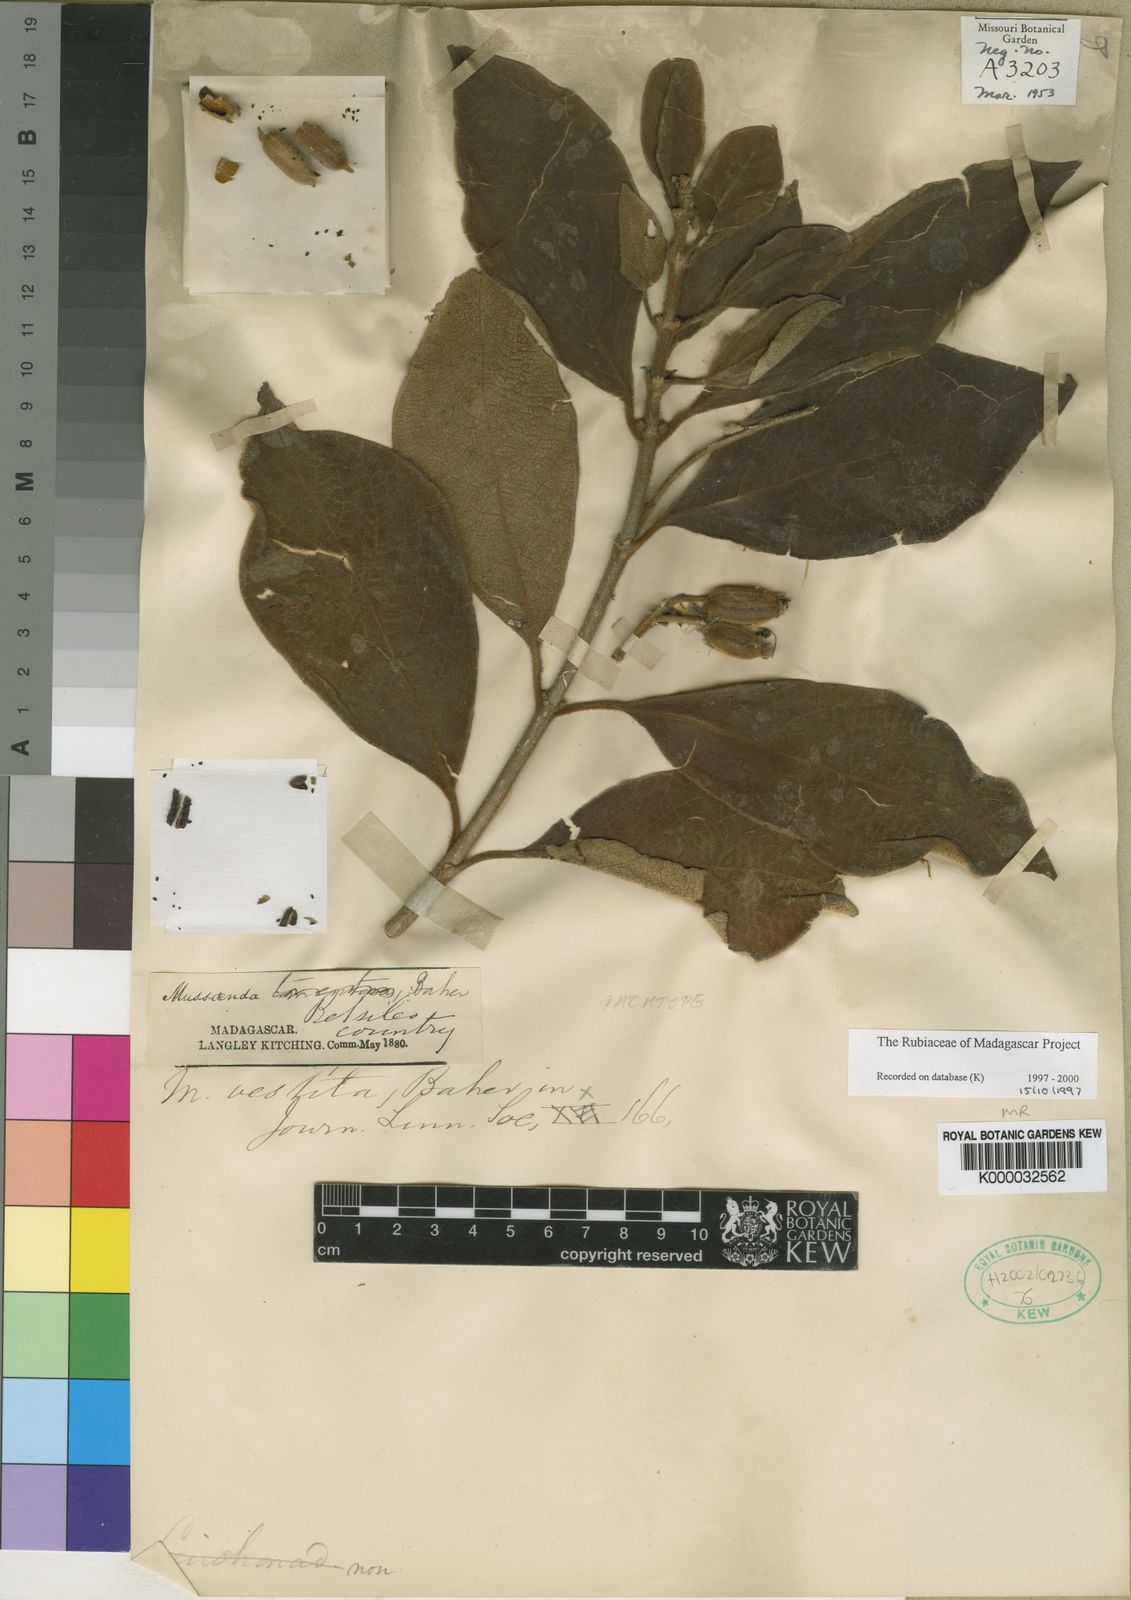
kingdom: Plantae
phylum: Tracheophyta
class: Magnoliopsida
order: Gentianales
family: Rubiaceae
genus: Bremeria
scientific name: Bremeria vestita
